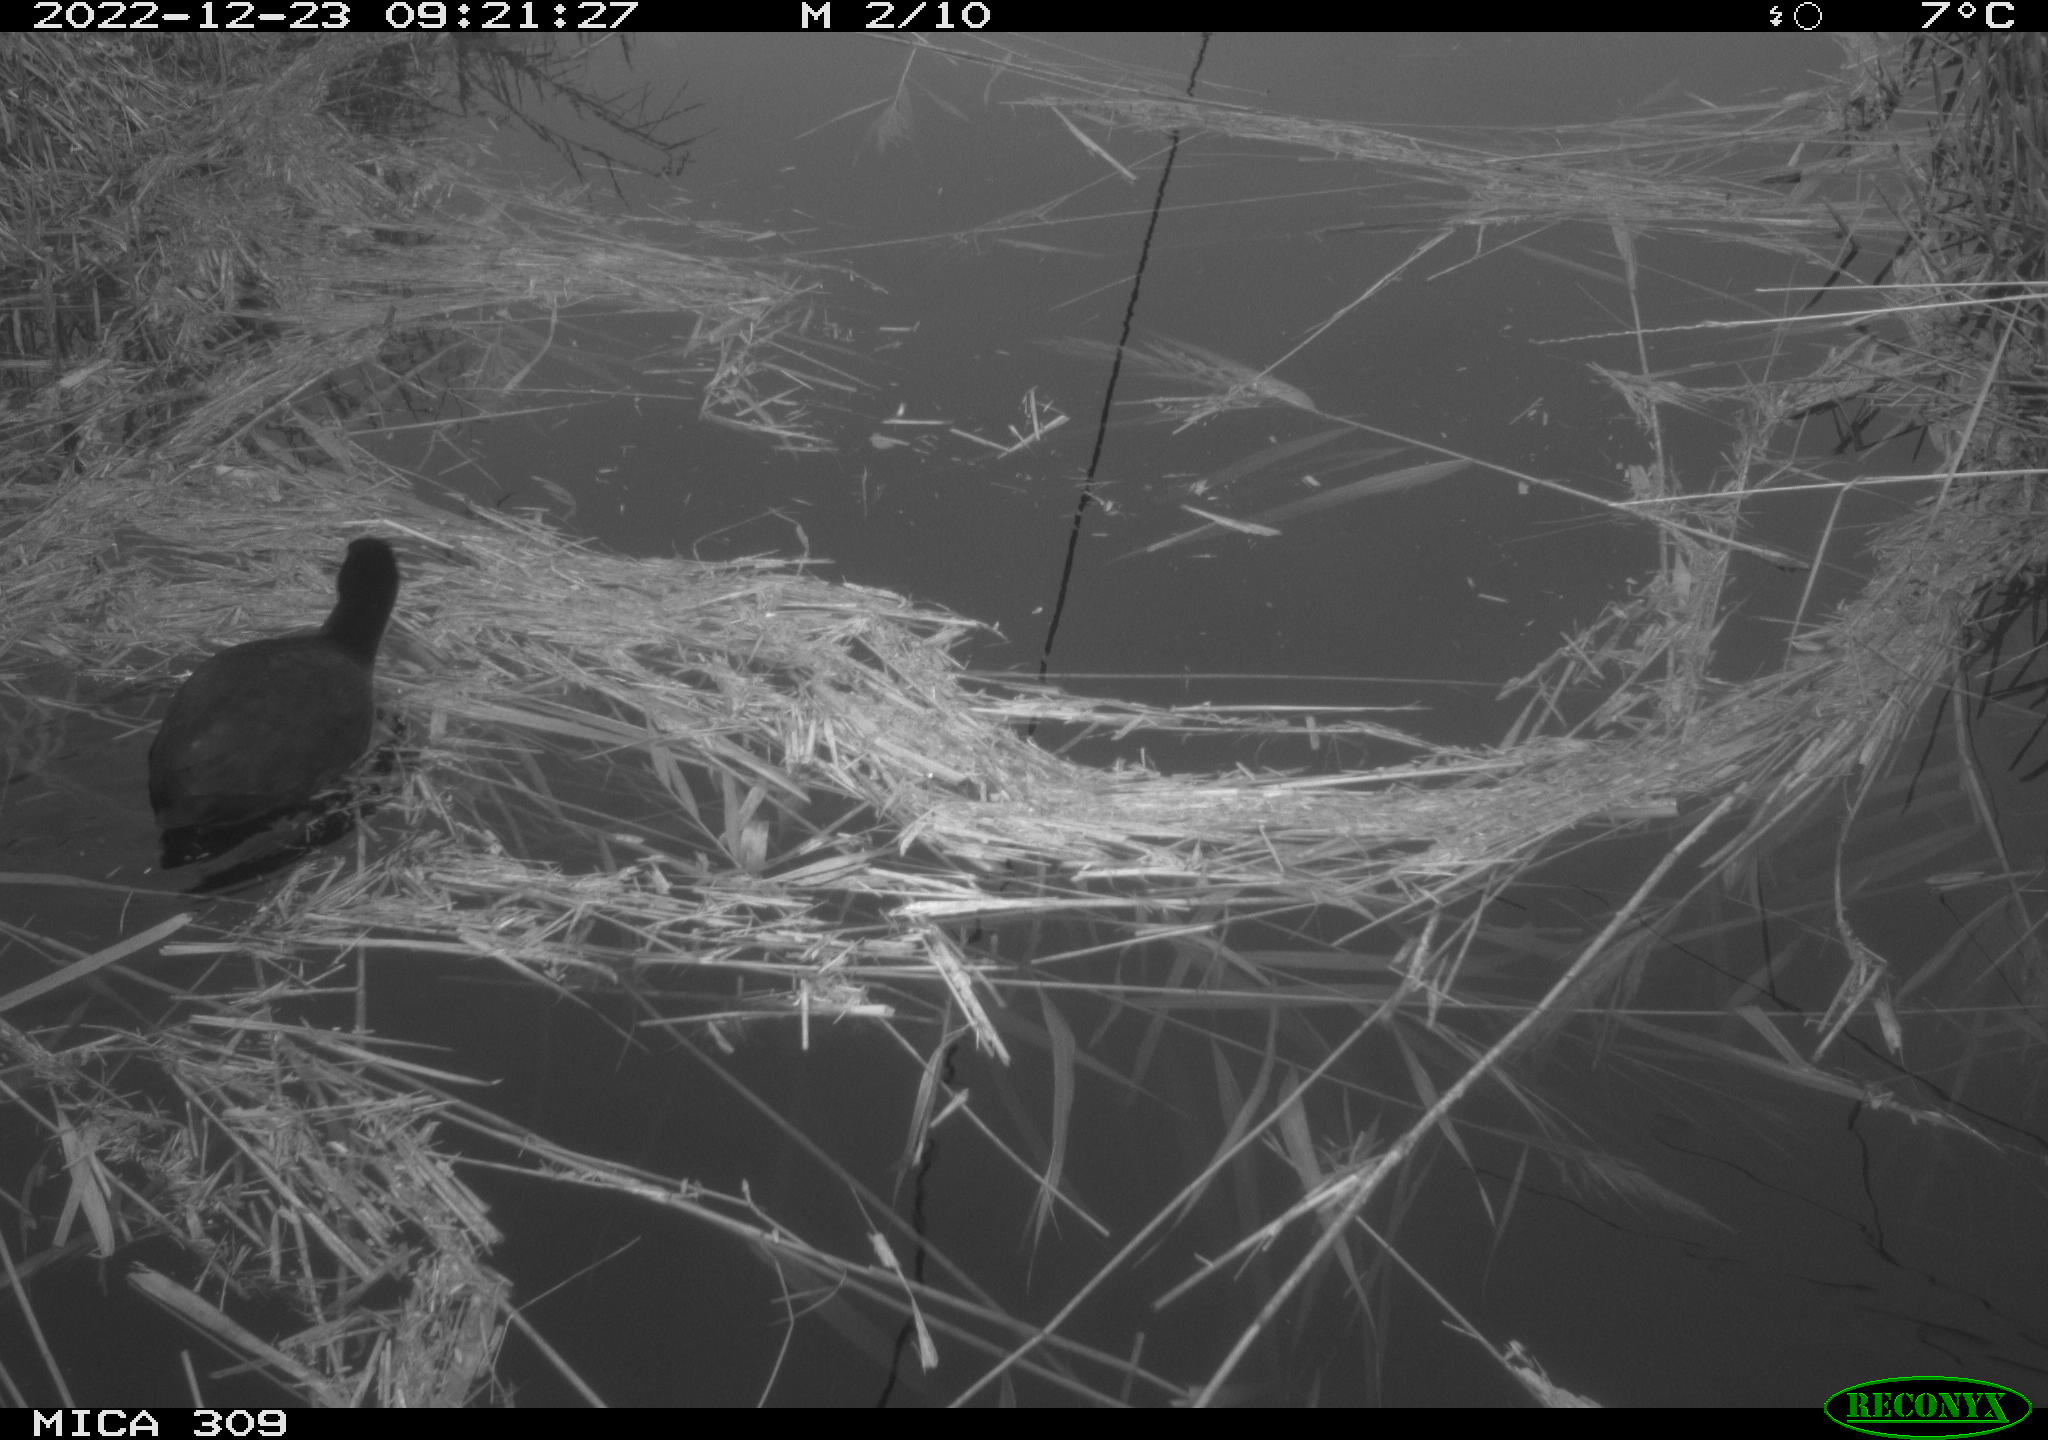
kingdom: Animalia
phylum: Chordata
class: Aves
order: Gruiformes
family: Rallidae
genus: Fulica
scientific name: Fulica atra
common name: Eurasian coot
